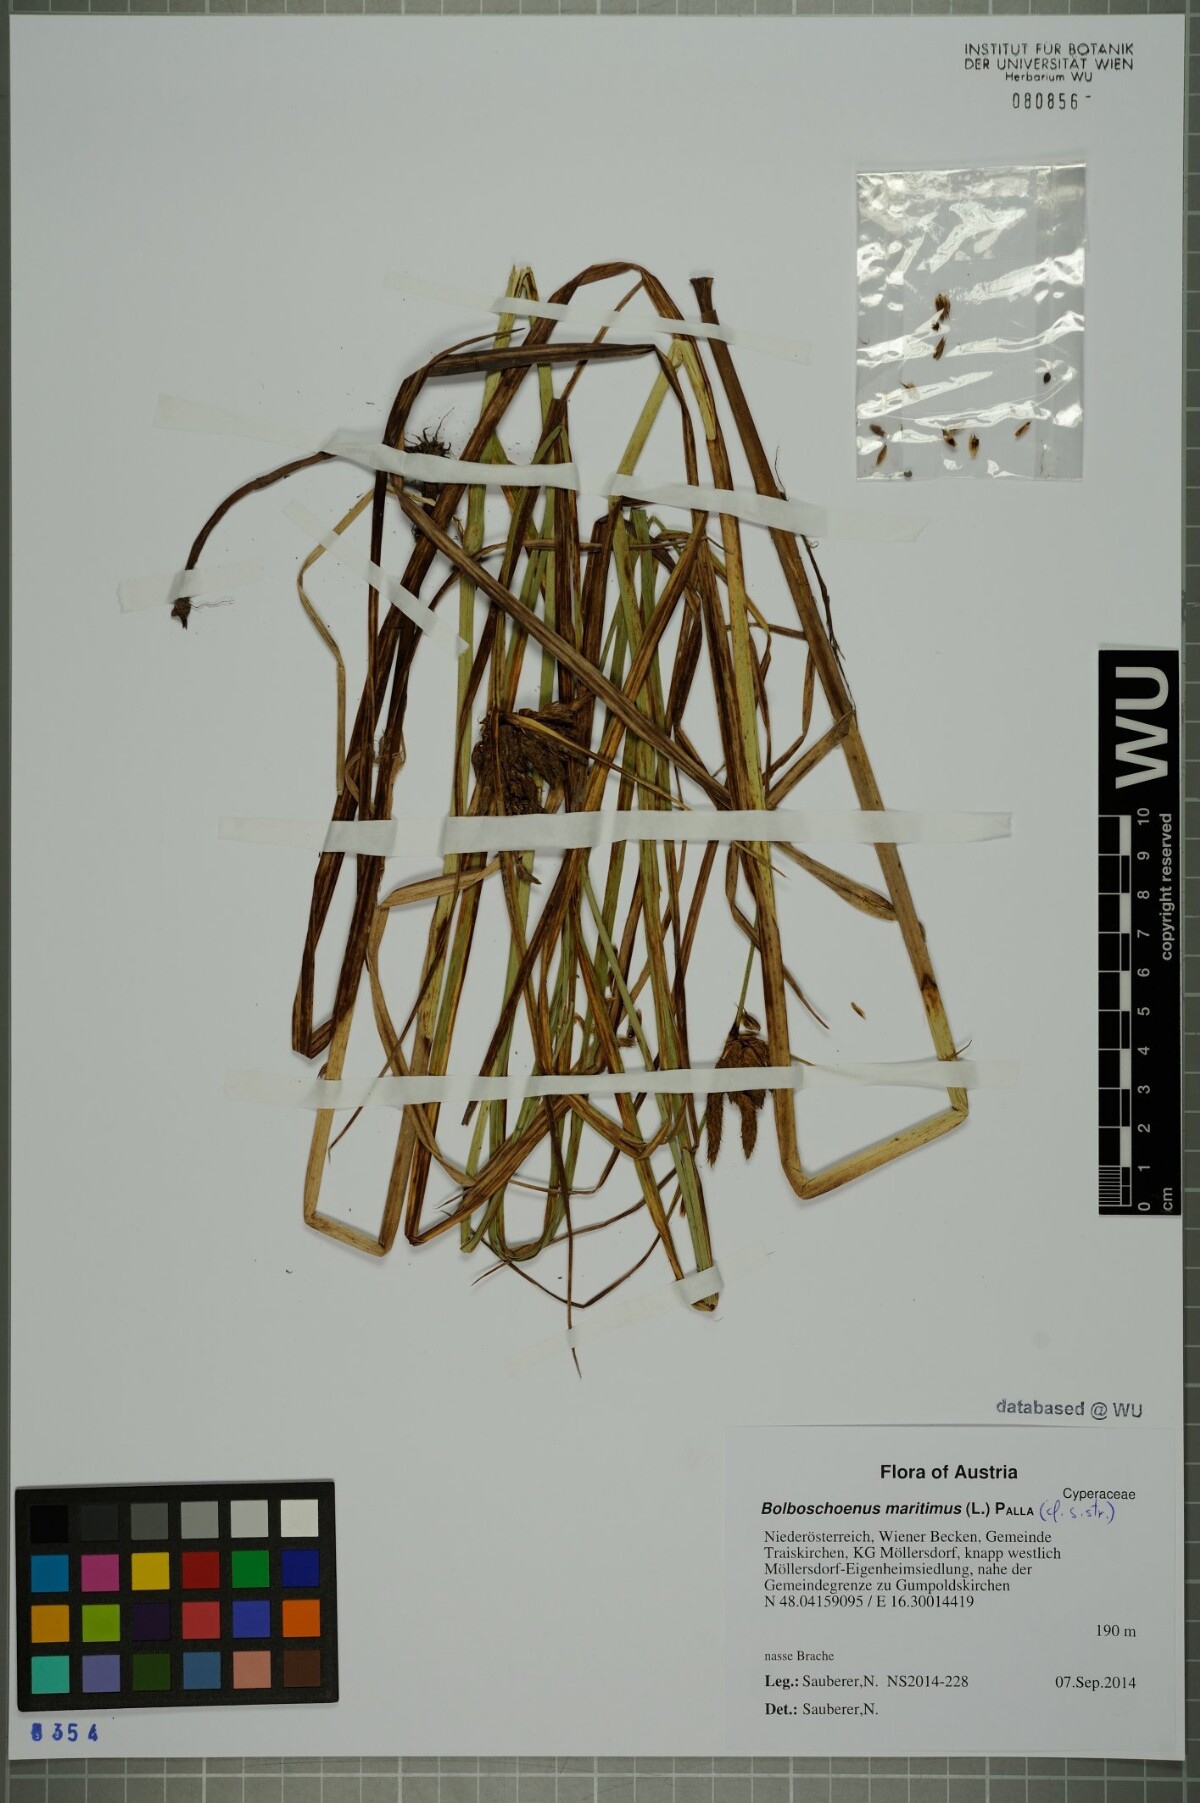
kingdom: Plantae
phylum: Tracheophyta
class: Liliopsida
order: Poales
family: Cyperaceae
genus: Bolboschoenus
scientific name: Bolboschoenus maritimus
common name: Sea club-rush
